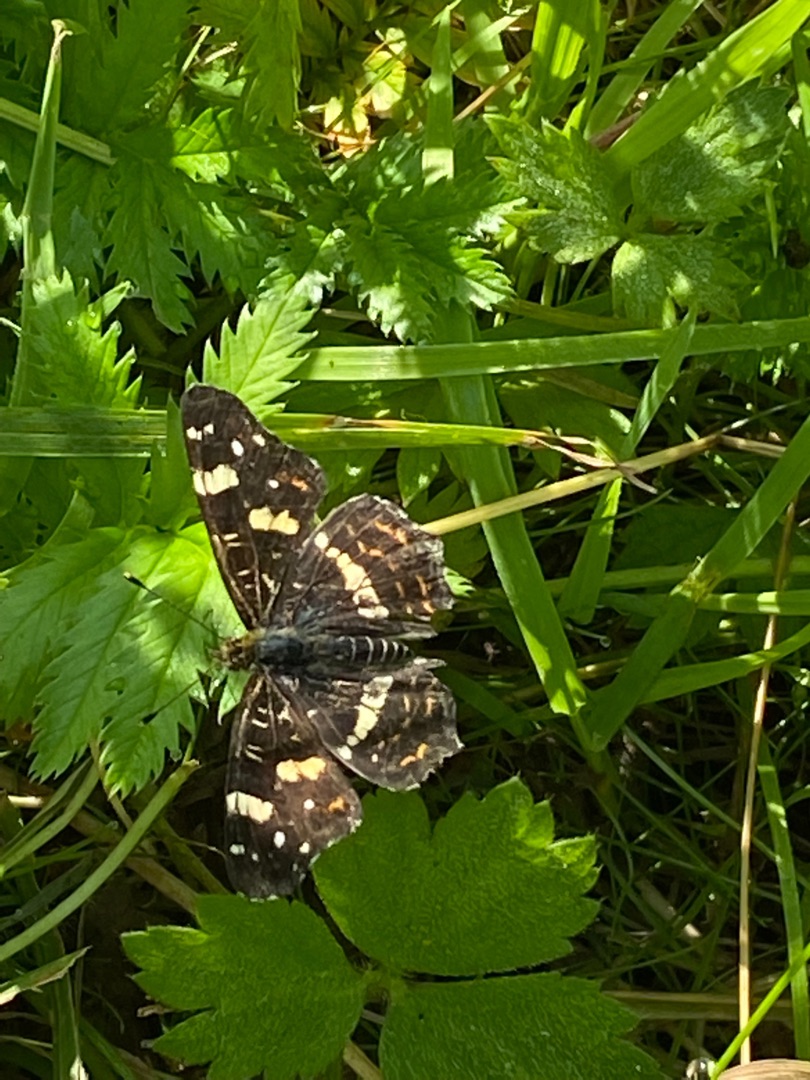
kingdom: Animalia
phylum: Arthropoda
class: Insecta
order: Lepidoptera
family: Nymphalidae
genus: Araschnia
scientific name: Araschnia levana
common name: Nældesommerfugl
